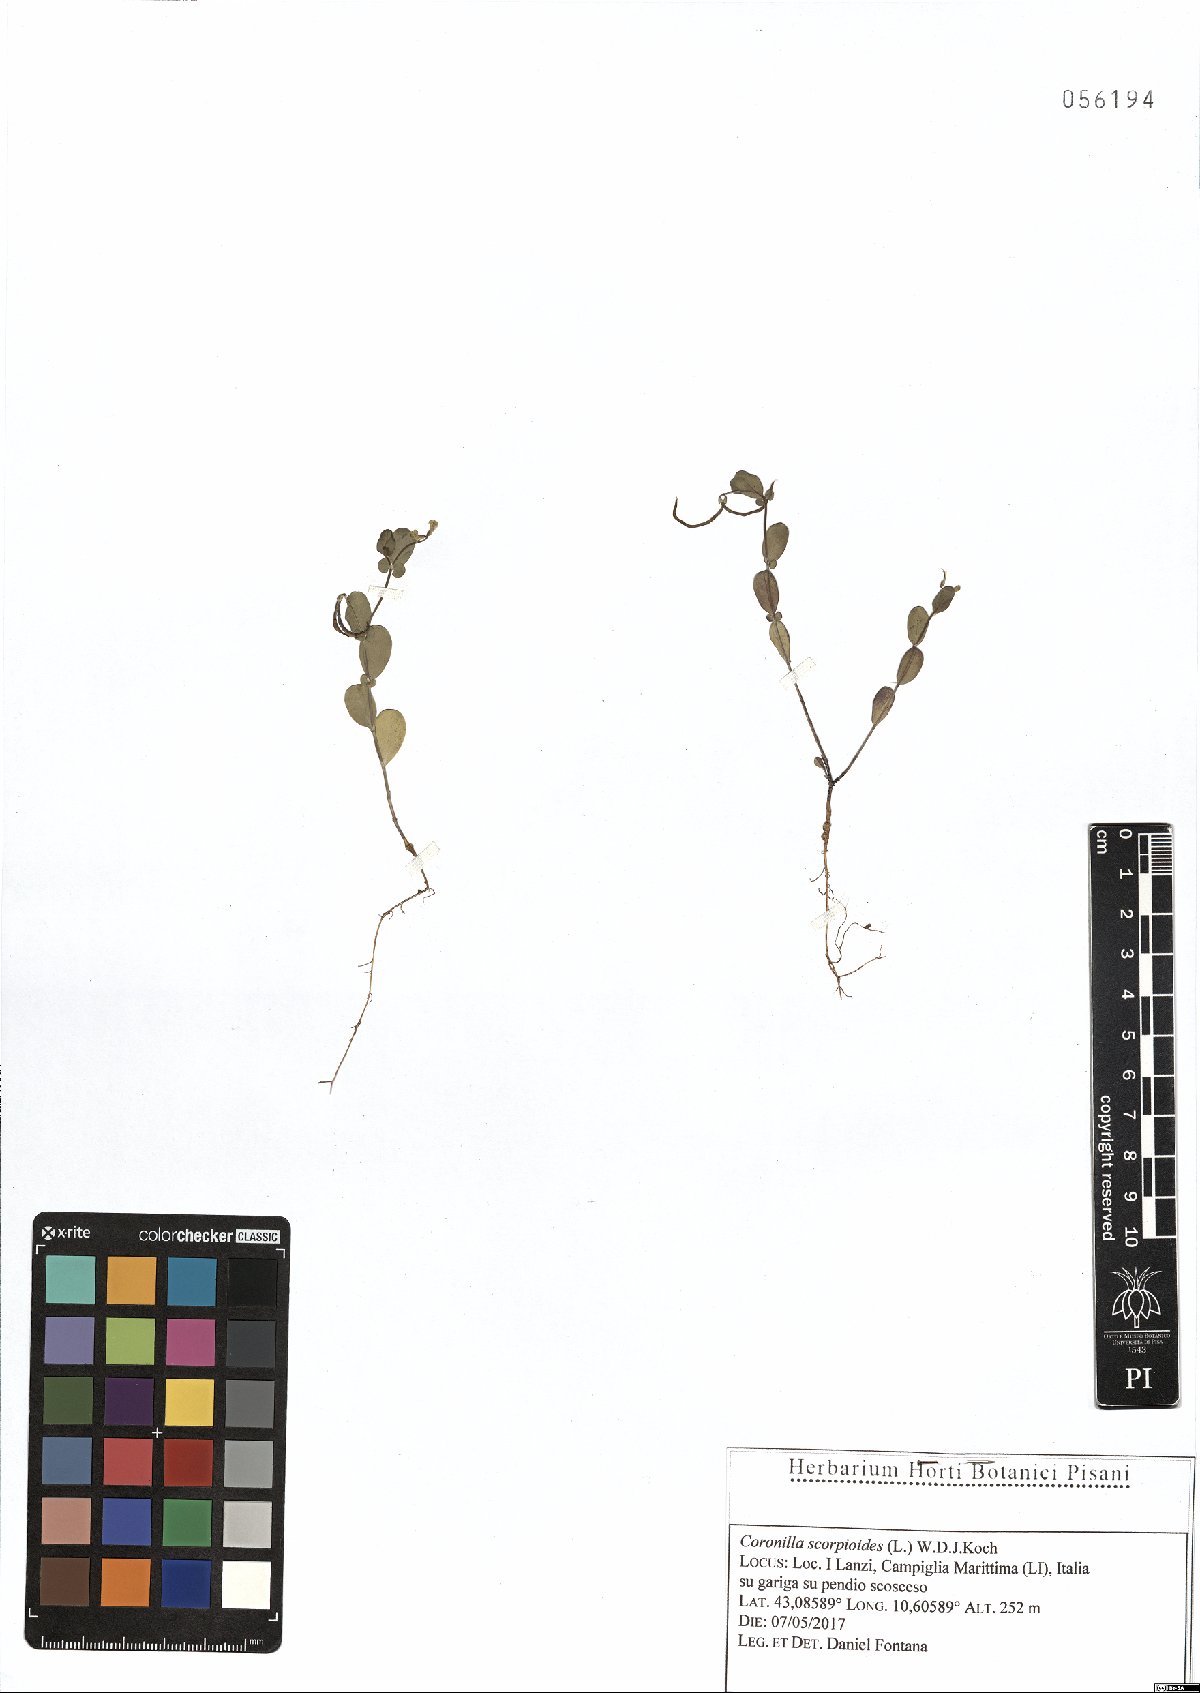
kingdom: Plantae
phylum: Tracheophyta
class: Magnoliopsida
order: Fabales
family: Fabaceae
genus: Coronilla
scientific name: Coronilla scorpioides
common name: Annual scorpion-vetch
